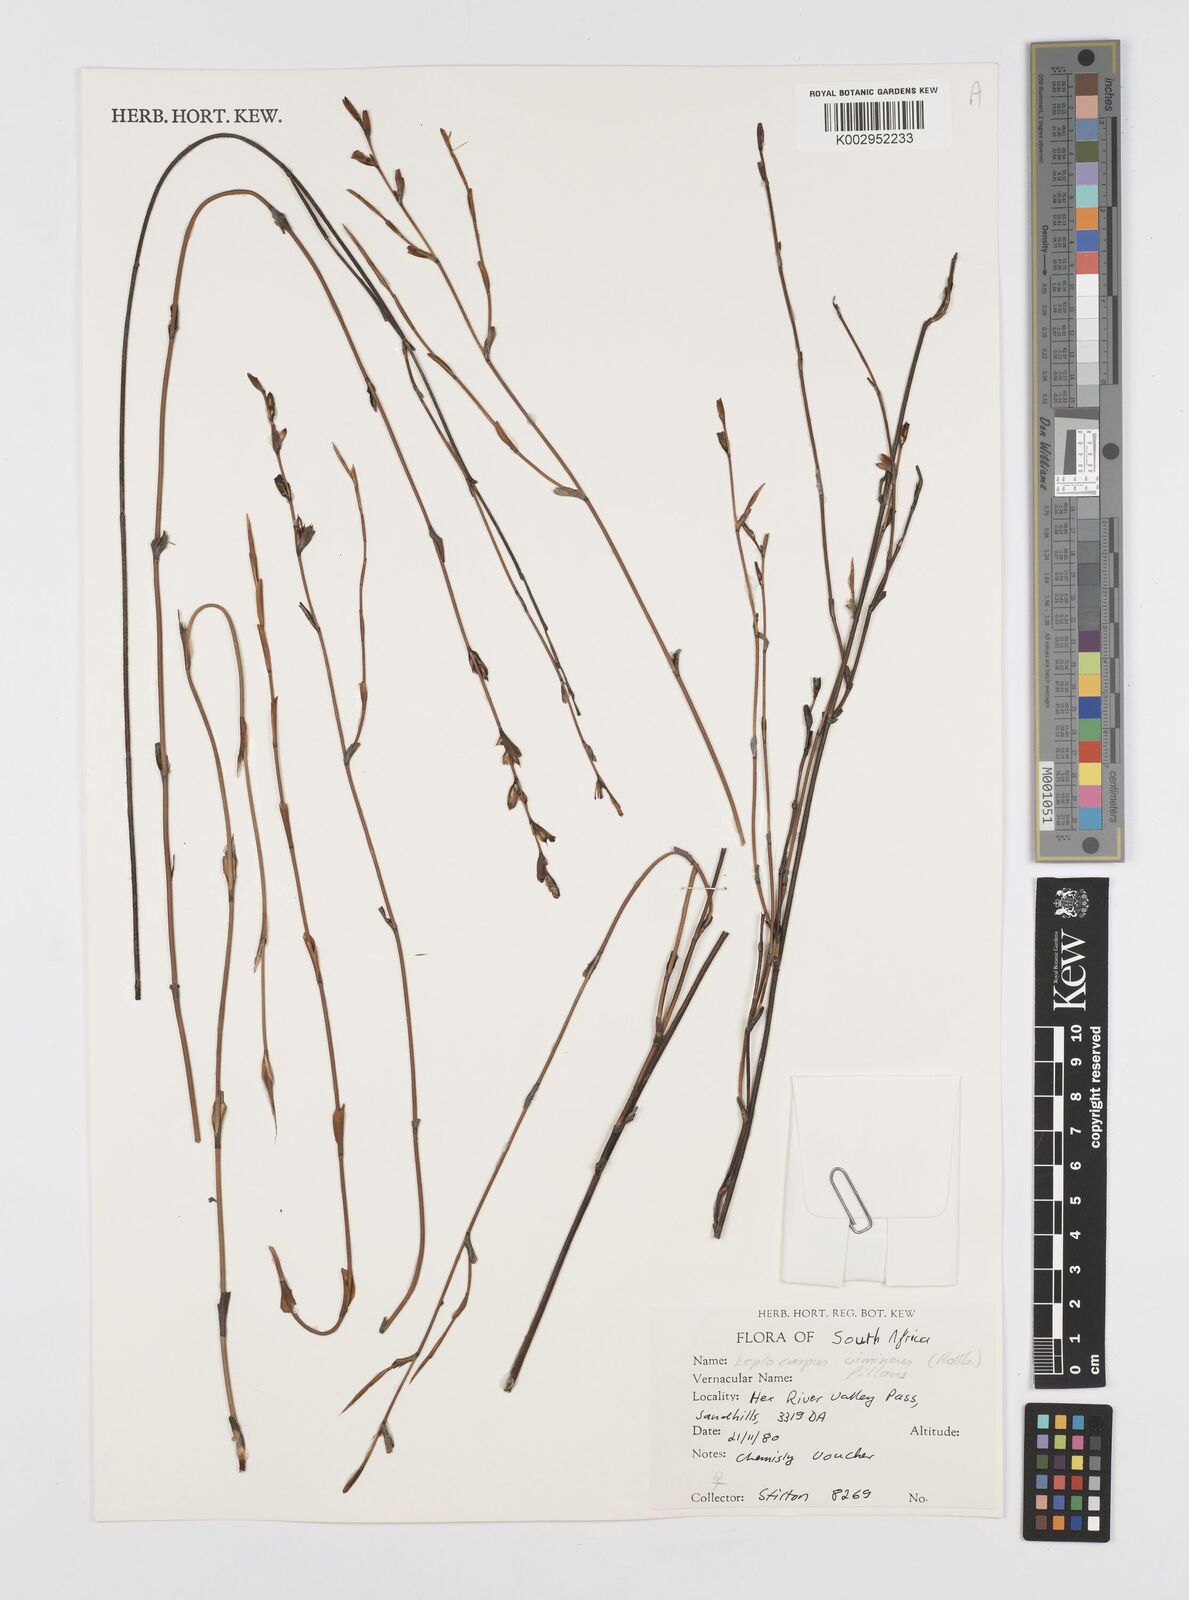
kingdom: Plantae
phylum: Tracheophyta
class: Liliopsida
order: Poales
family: Restionaceae
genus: Restio
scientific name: Restio vimineus
